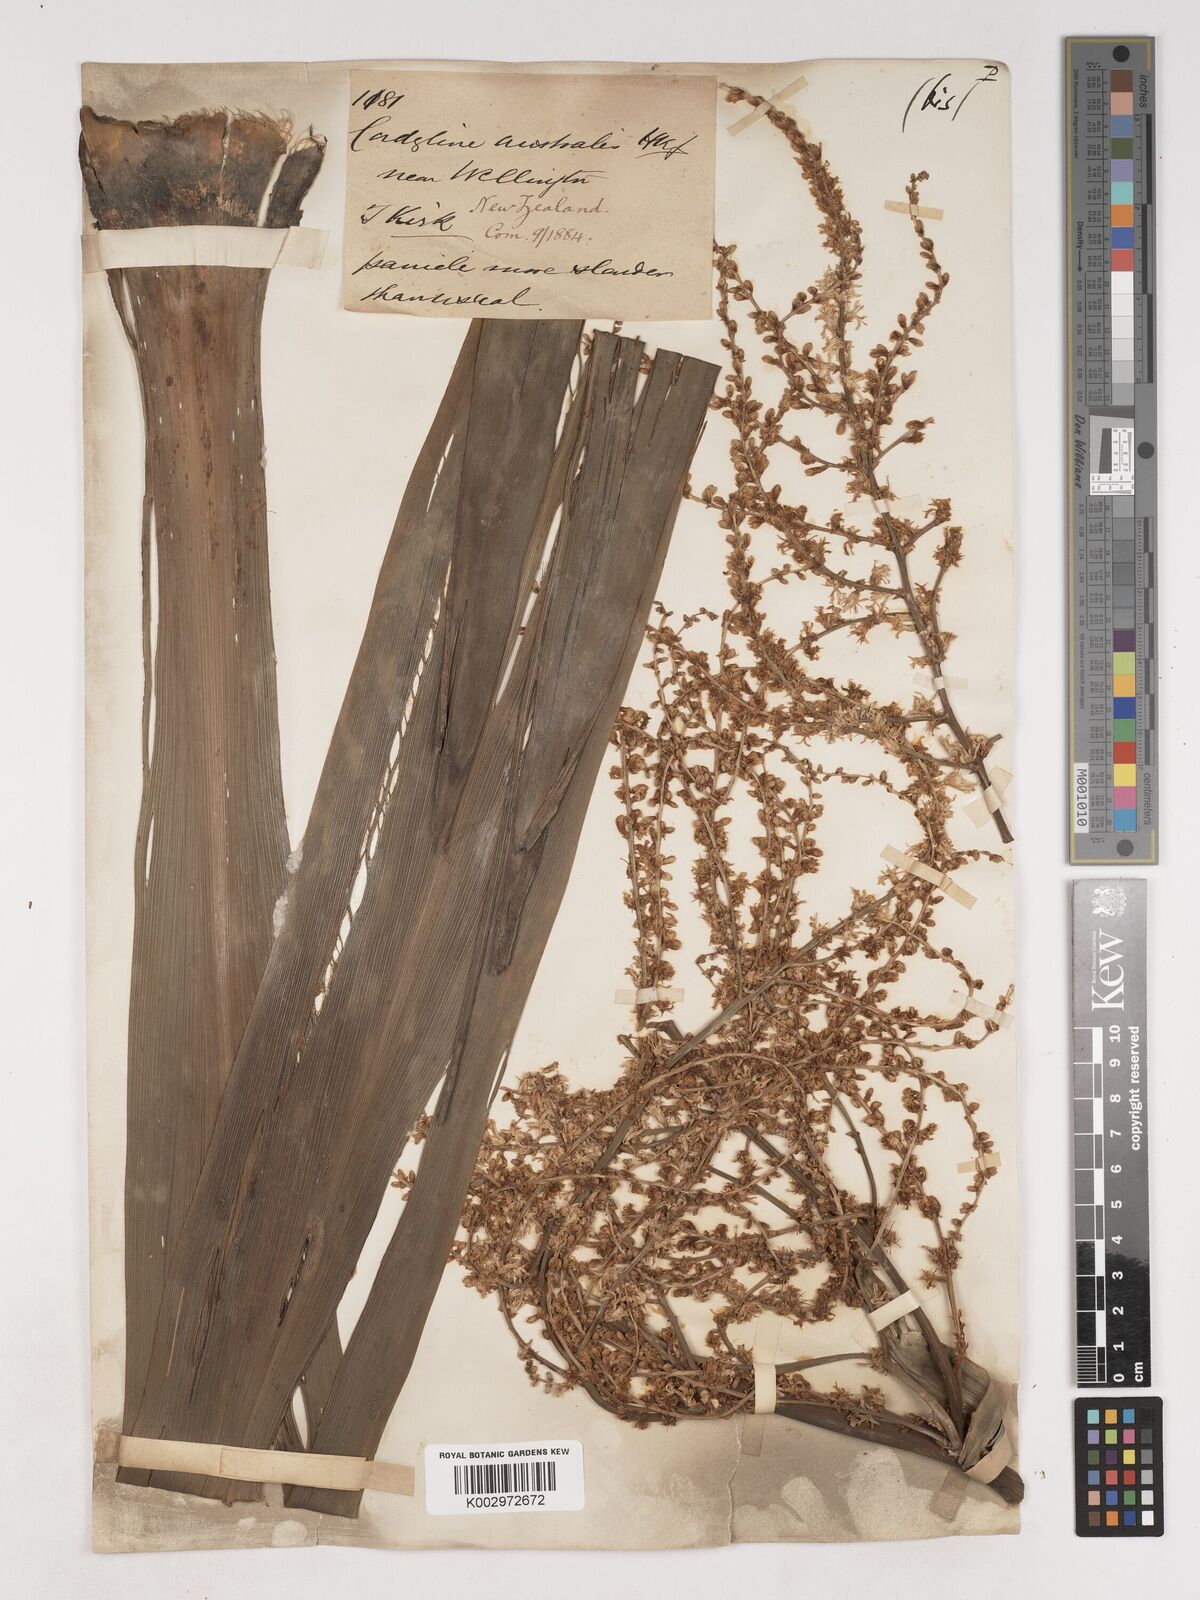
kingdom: Plantae
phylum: Tracheophyta
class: Liliopsida
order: Asparagales
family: Asparagaceae
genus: Cordyline
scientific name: Cordyline australis
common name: Cabbage-palm
